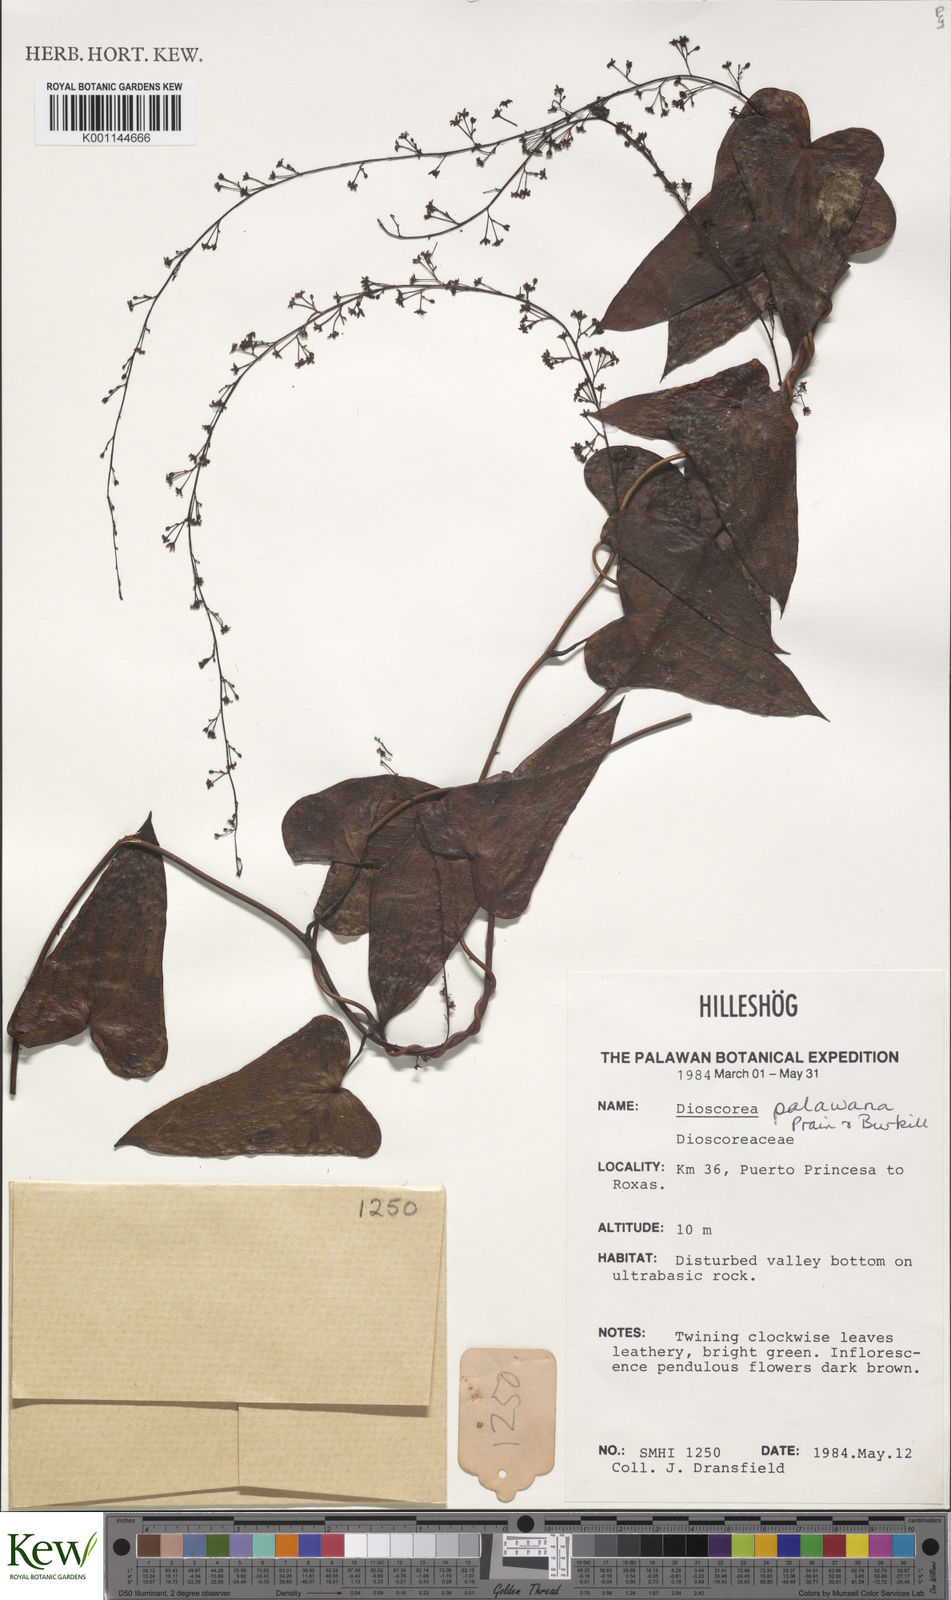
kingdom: Plantae
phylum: Tracheophyta
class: Liliopsida
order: Dioscoreales
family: Dioscoreaceae
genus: Dioscorea
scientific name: Dioscorea palawana
